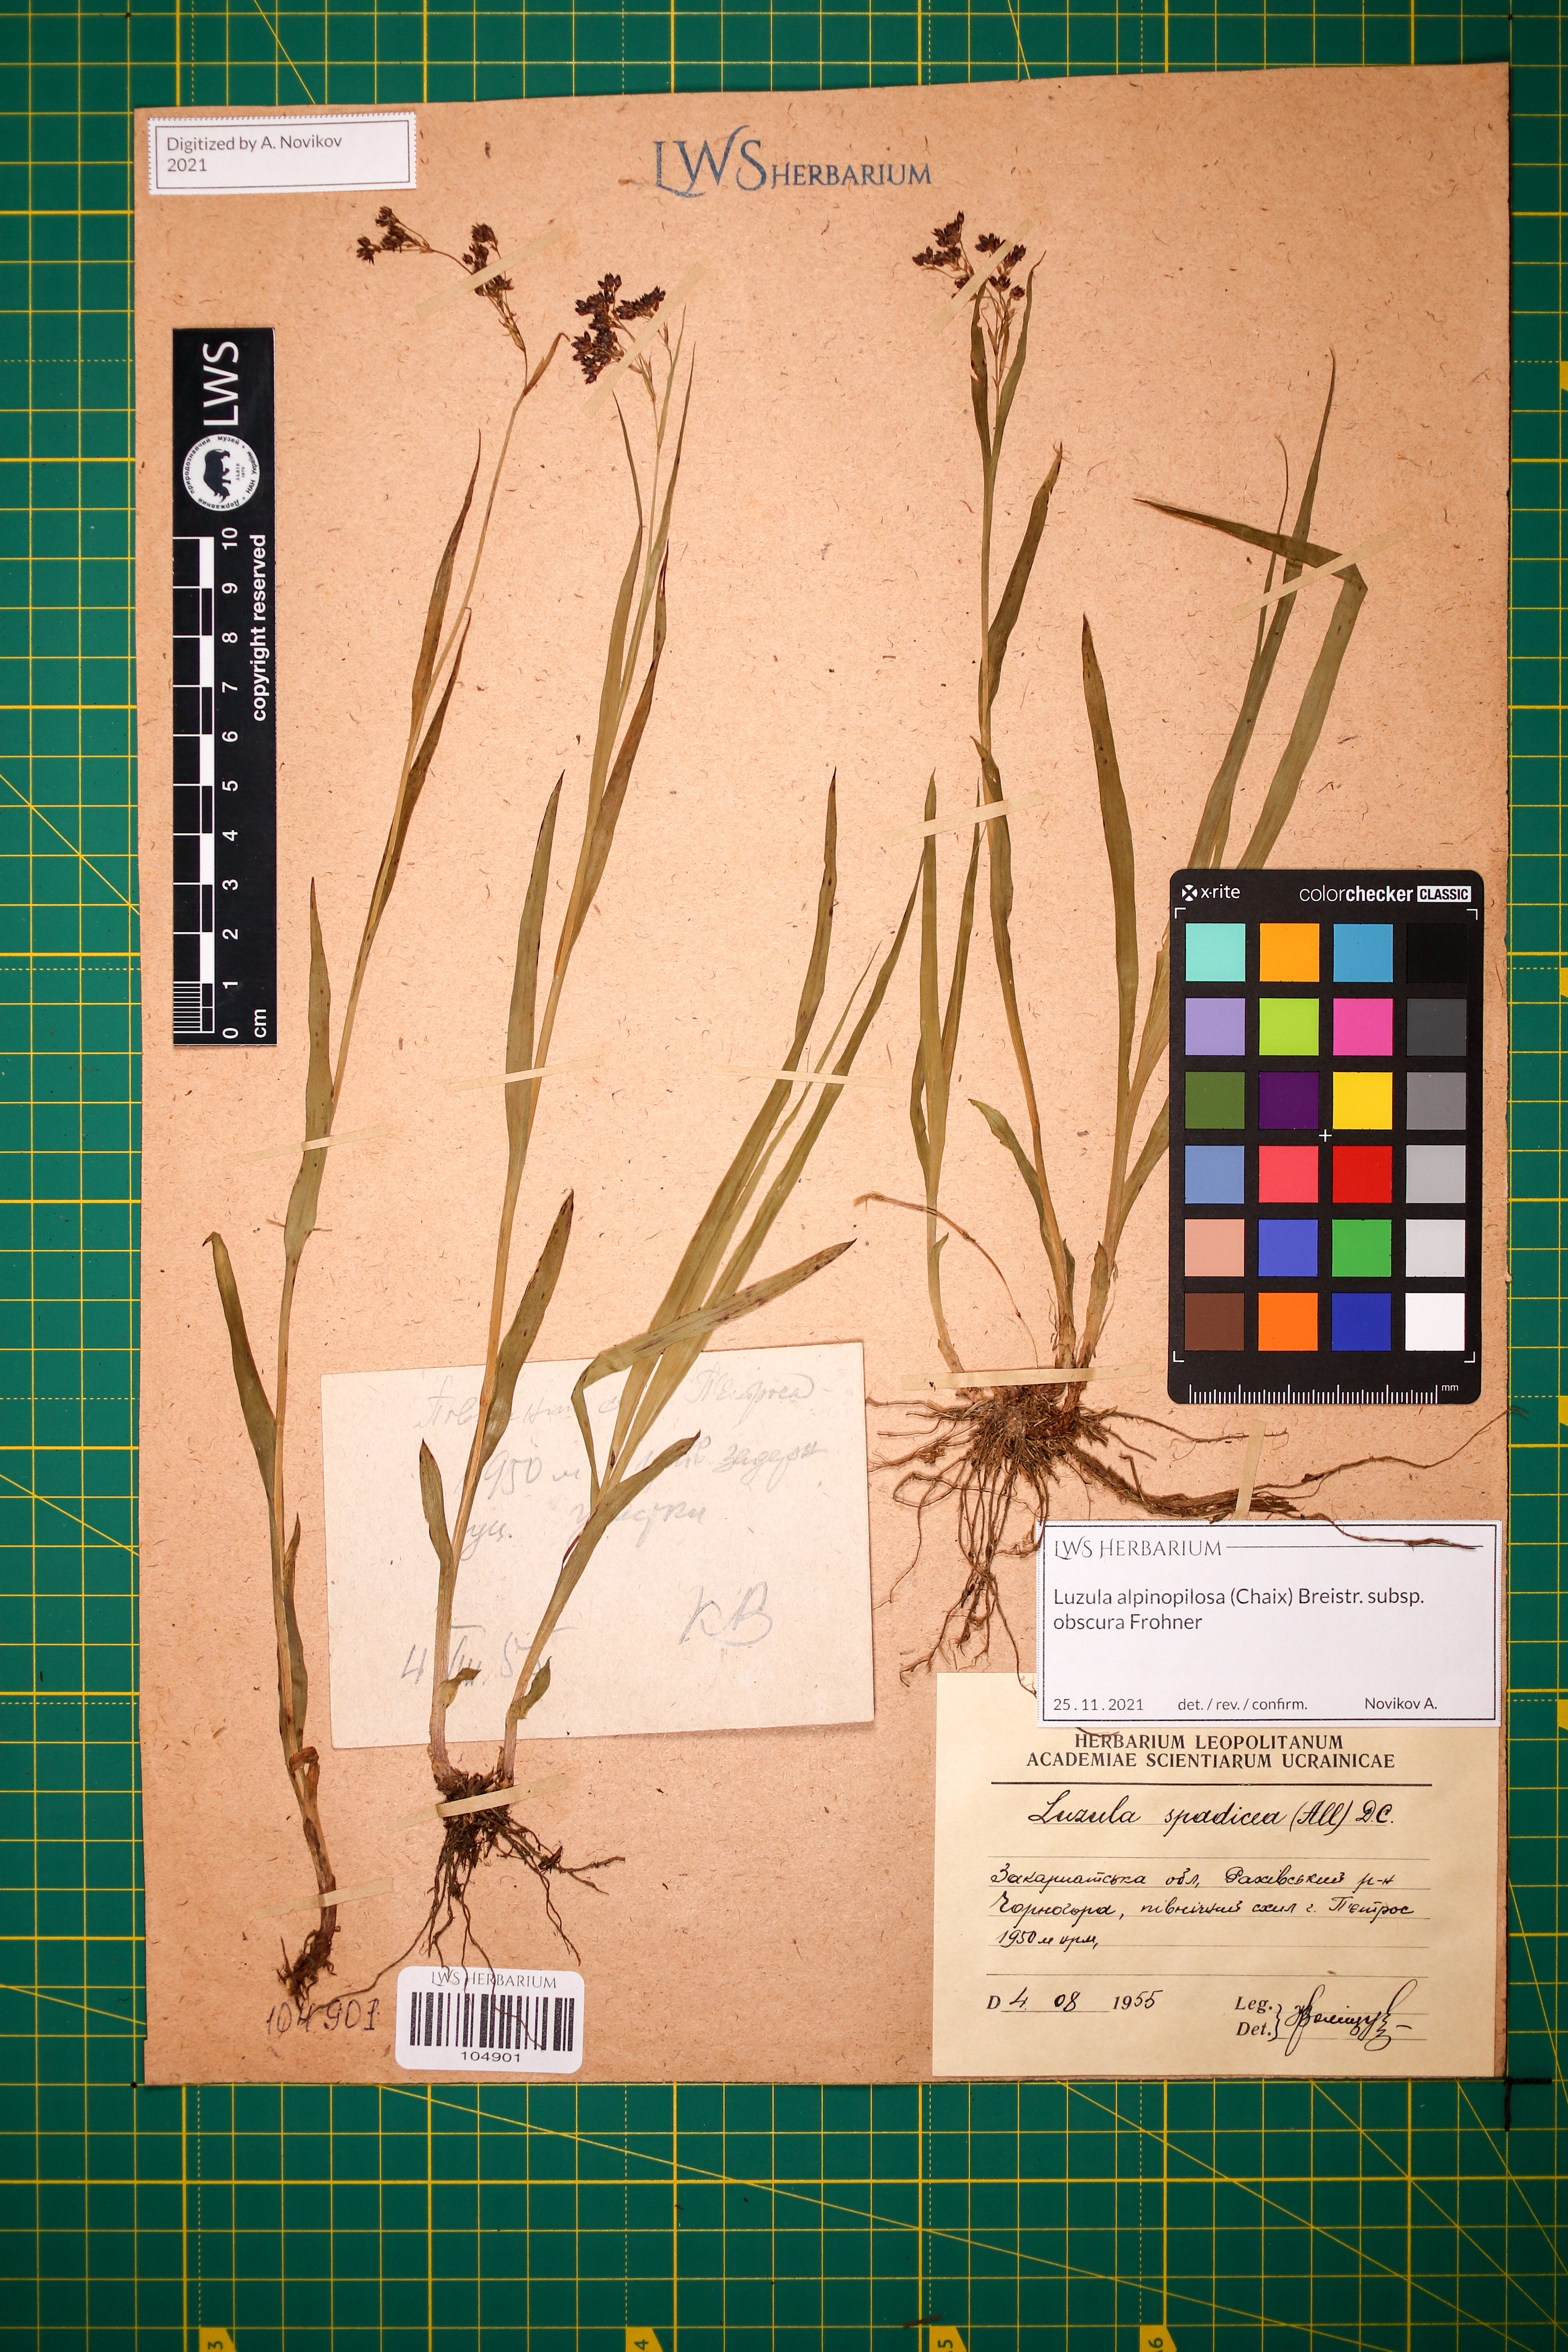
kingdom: Plantae
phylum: Tracheophyta
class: Liliopsida
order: Poales
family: Juncaceae
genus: Luzula
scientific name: Luzula alpinopilosa
